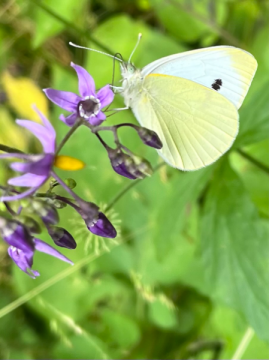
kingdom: Animalia
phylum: Arthropoda
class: Insecta
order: Lepidoptera
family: Pieridae
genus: Pieris
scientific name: Pieris rapae
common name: Cabbage White
